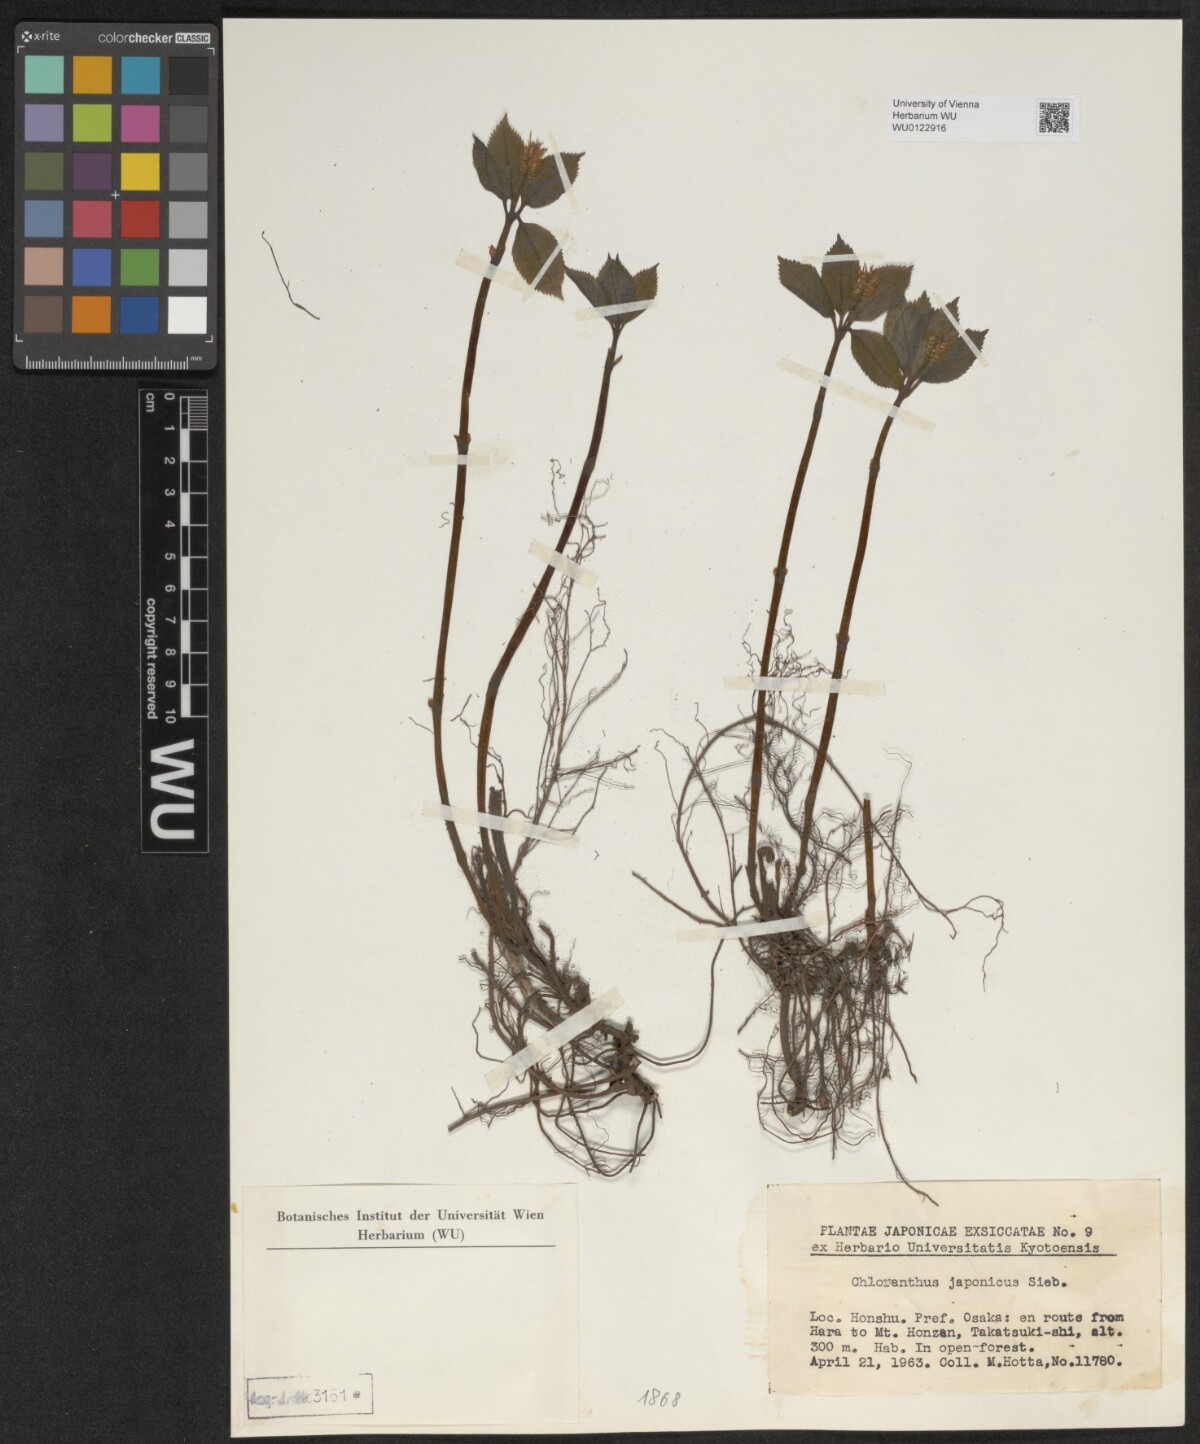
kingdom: Plantae
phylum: Tracheophyta
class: Magnoliopsida
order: Chloranthales
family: Chloranthaceae
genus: Chloranthus
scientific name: Chloranthus japonicus
